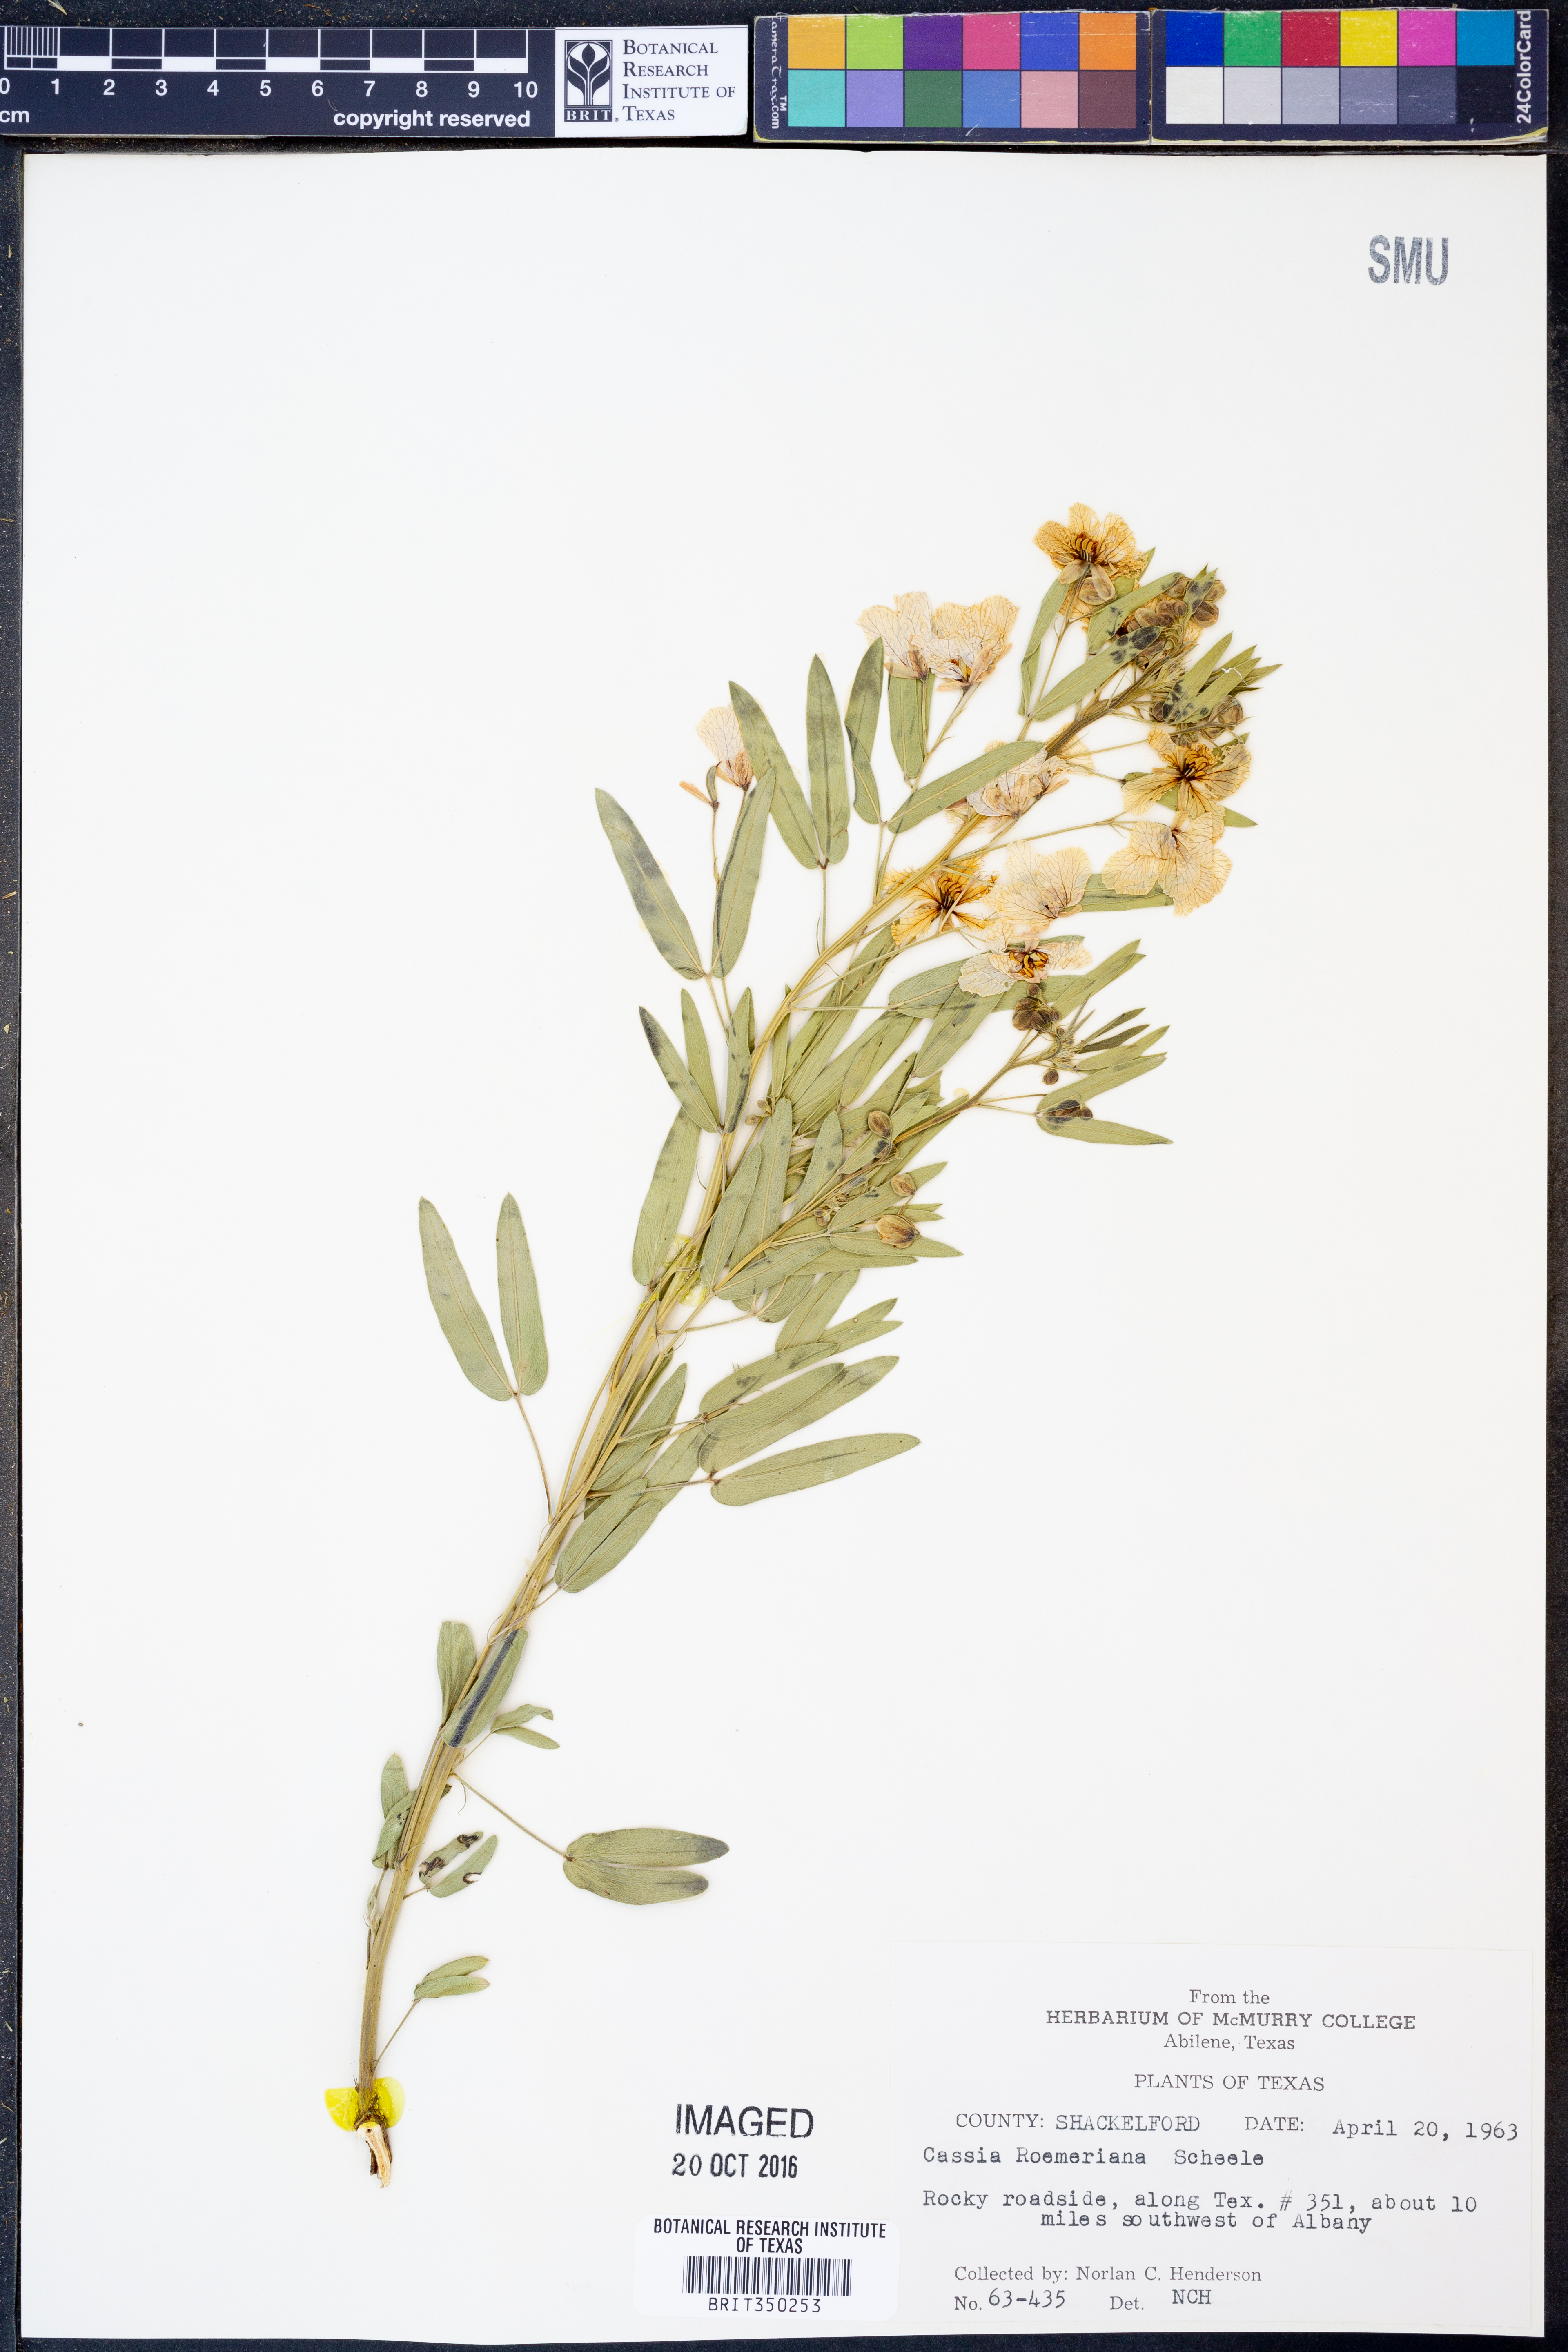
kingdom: Plantae
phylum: Tracheophyta
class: Magnoliopsida
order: Fabales
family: Fabaceae
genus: Senna
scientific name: Senna roemeriana
